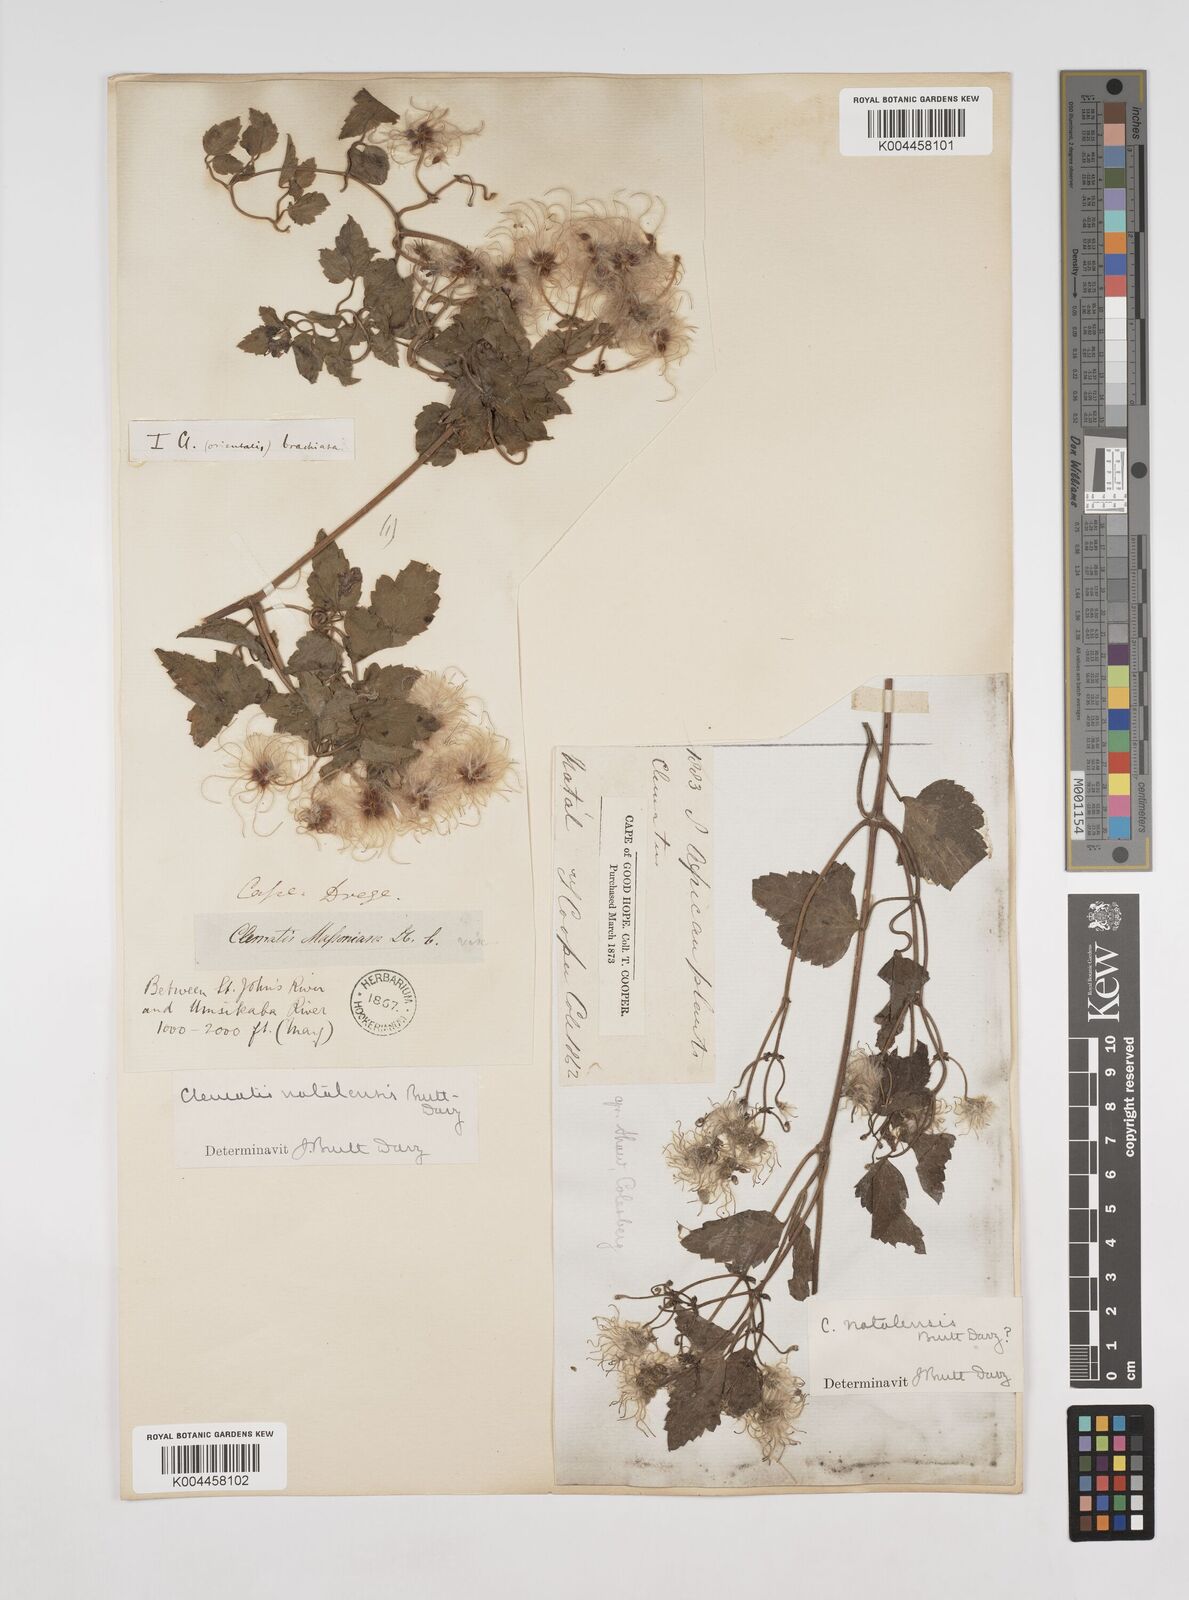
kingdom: Plantae
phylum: Tracheophyta
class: Magnoliopsida
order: Ranunculales
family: Ranunculaceae
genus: Clematis
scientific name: Clematis
